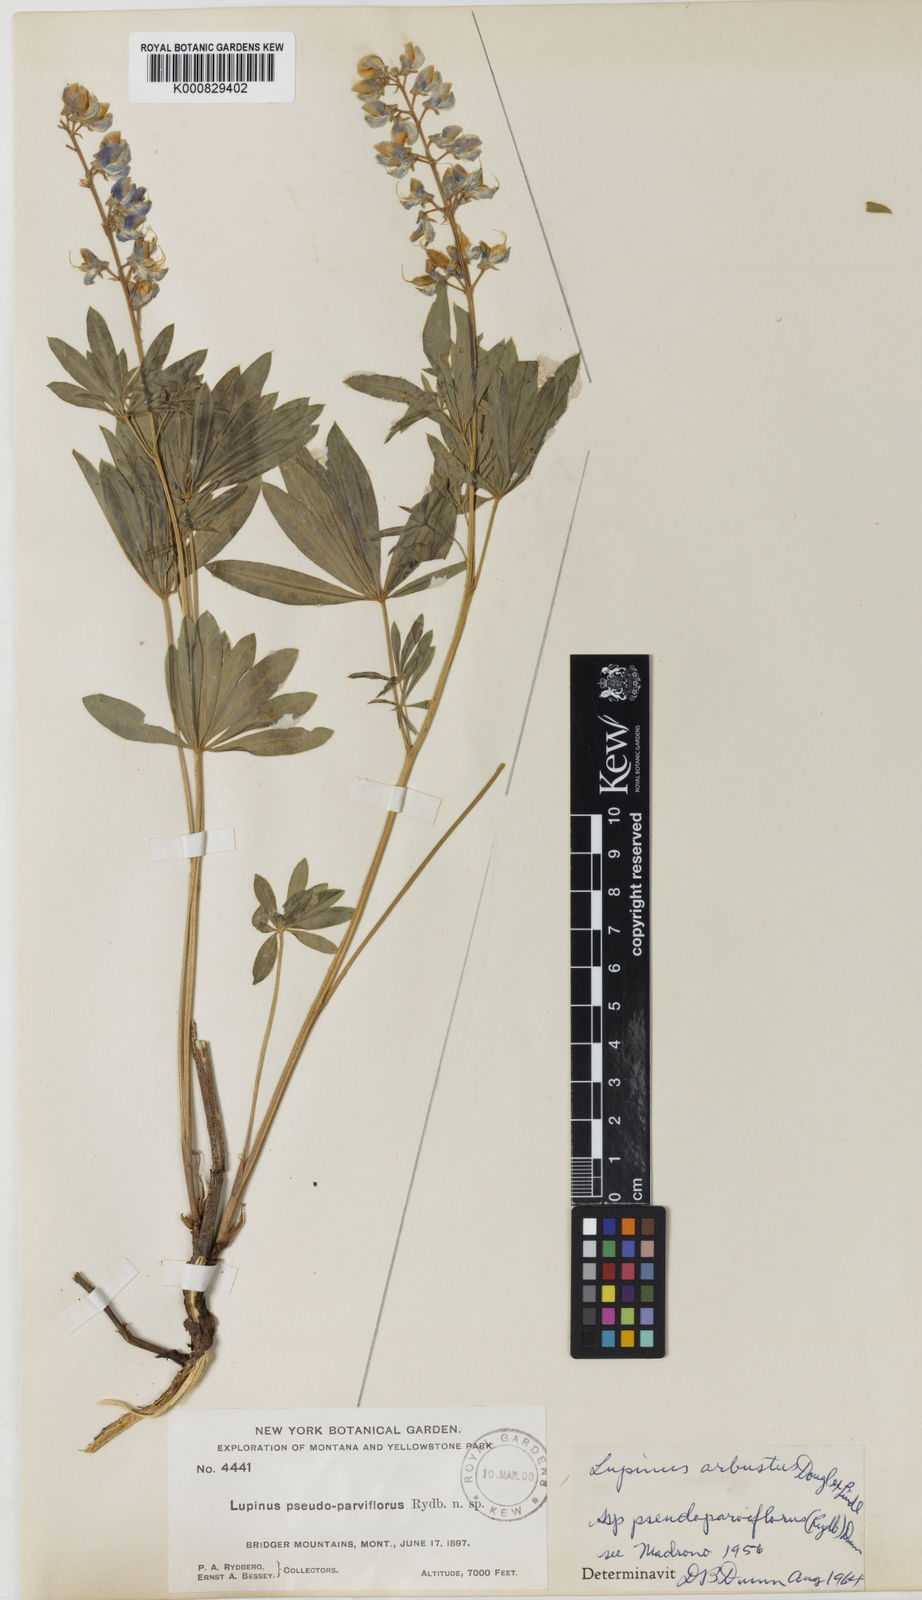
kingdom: Plantae
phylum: Tracheophyta
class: Magnoliopsida
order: Fabales
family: Fabaceae
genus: Lupinus
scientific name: Lupinus arbustus
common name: Montana lupine
